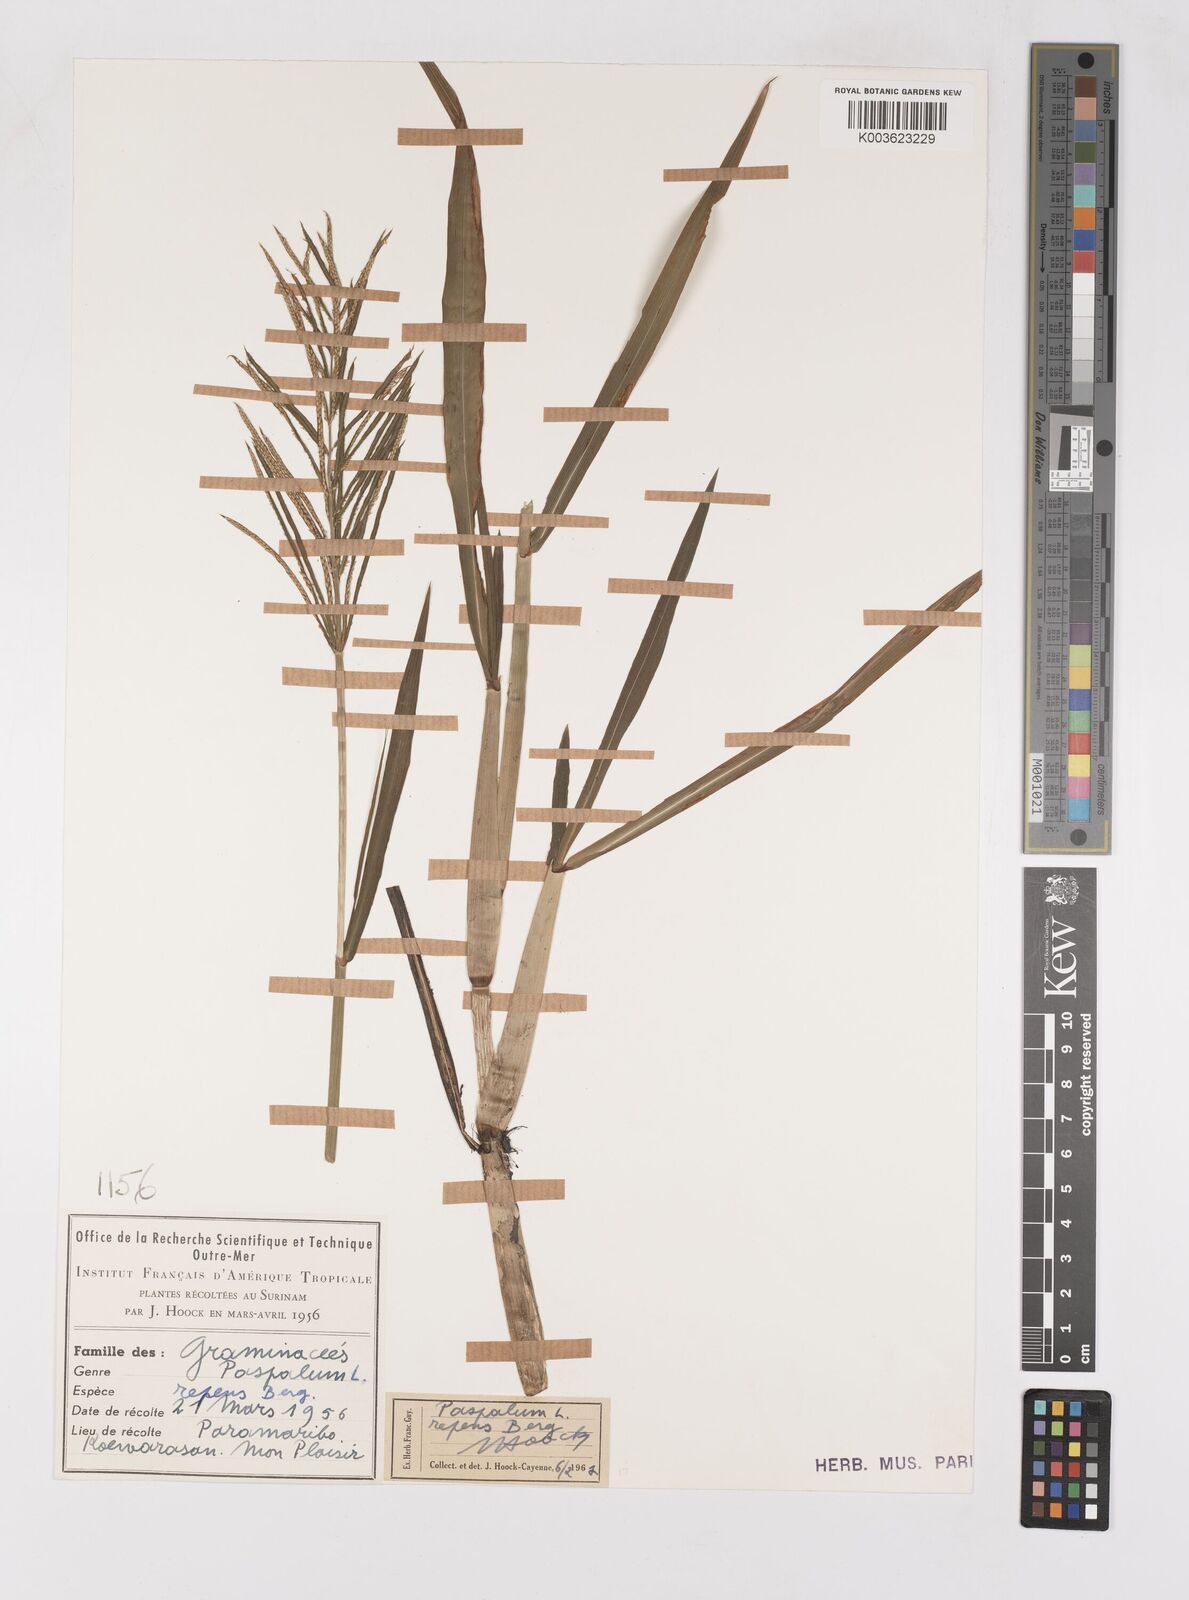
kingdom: Plantae
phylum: Tracheophyta
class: Liliopsida
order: Poales
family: Poaceae
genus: Paspalum
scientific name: Paspalum repens
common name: Water paspalum
